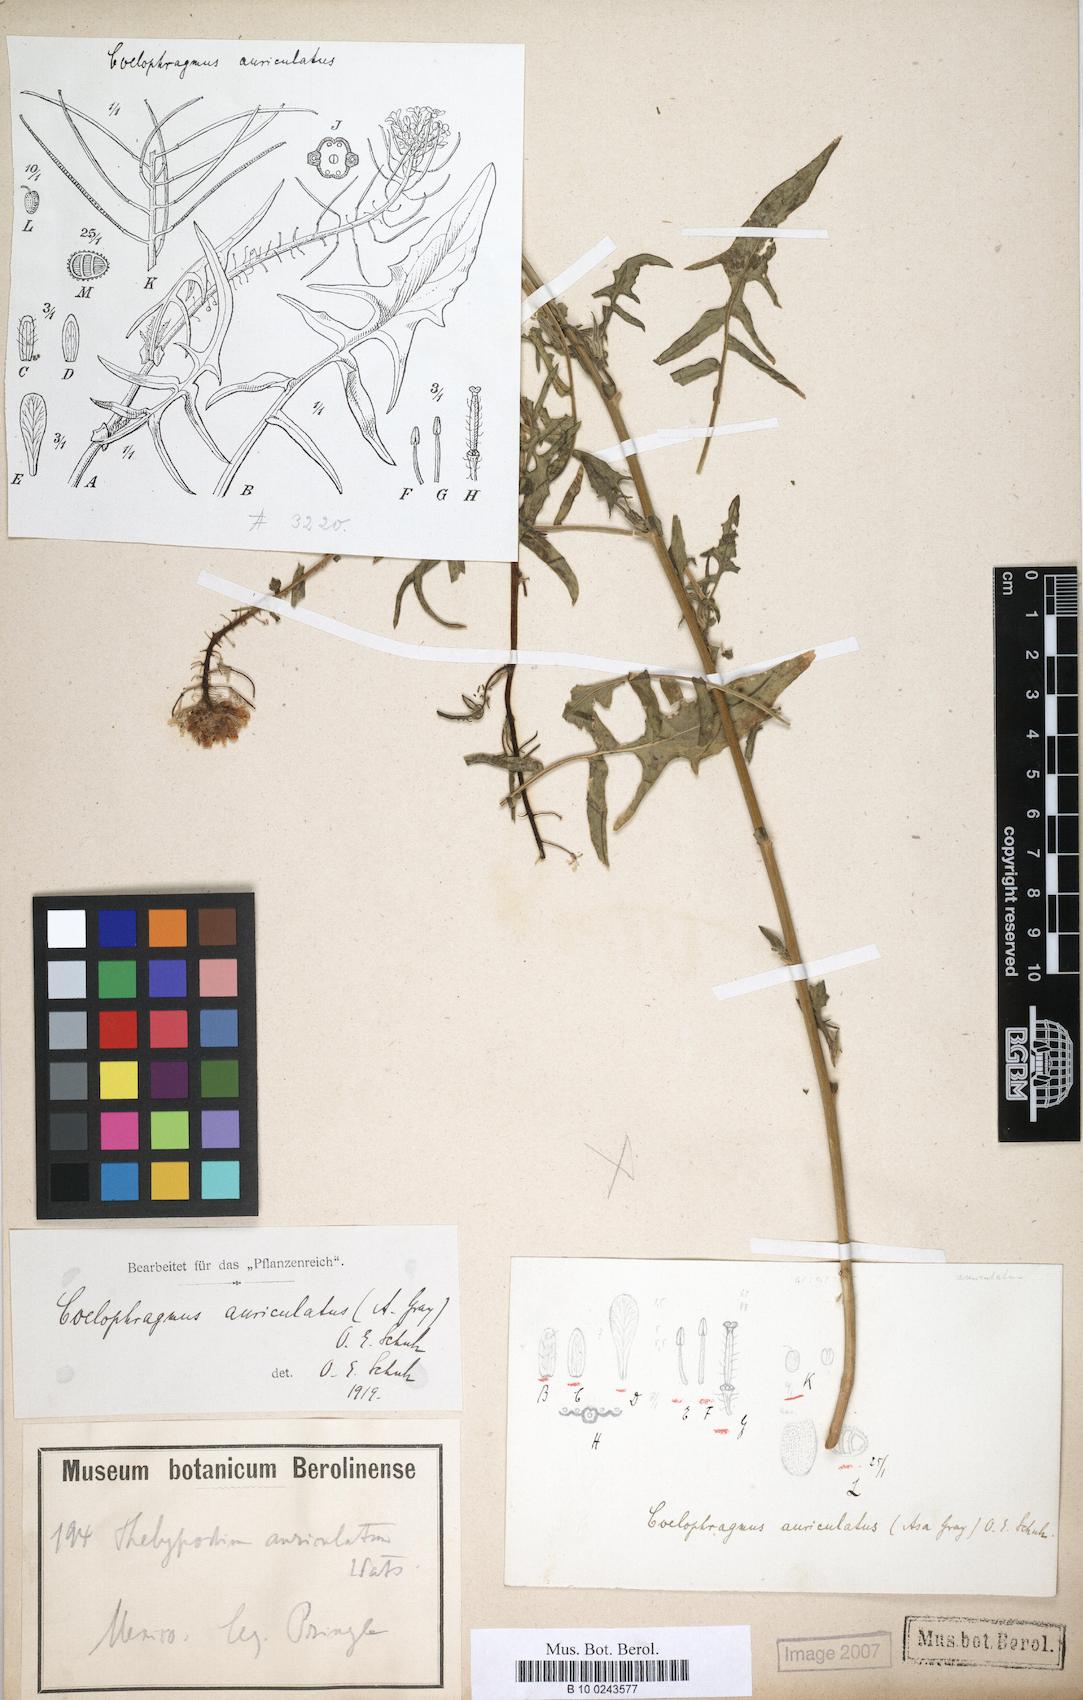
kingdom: Plantae
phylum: Tracheophyta
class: Magnoliopsida
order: Brassicales
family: Brassicaceae
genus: Dryopetalon
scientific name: Dryopetalon auriculatum
